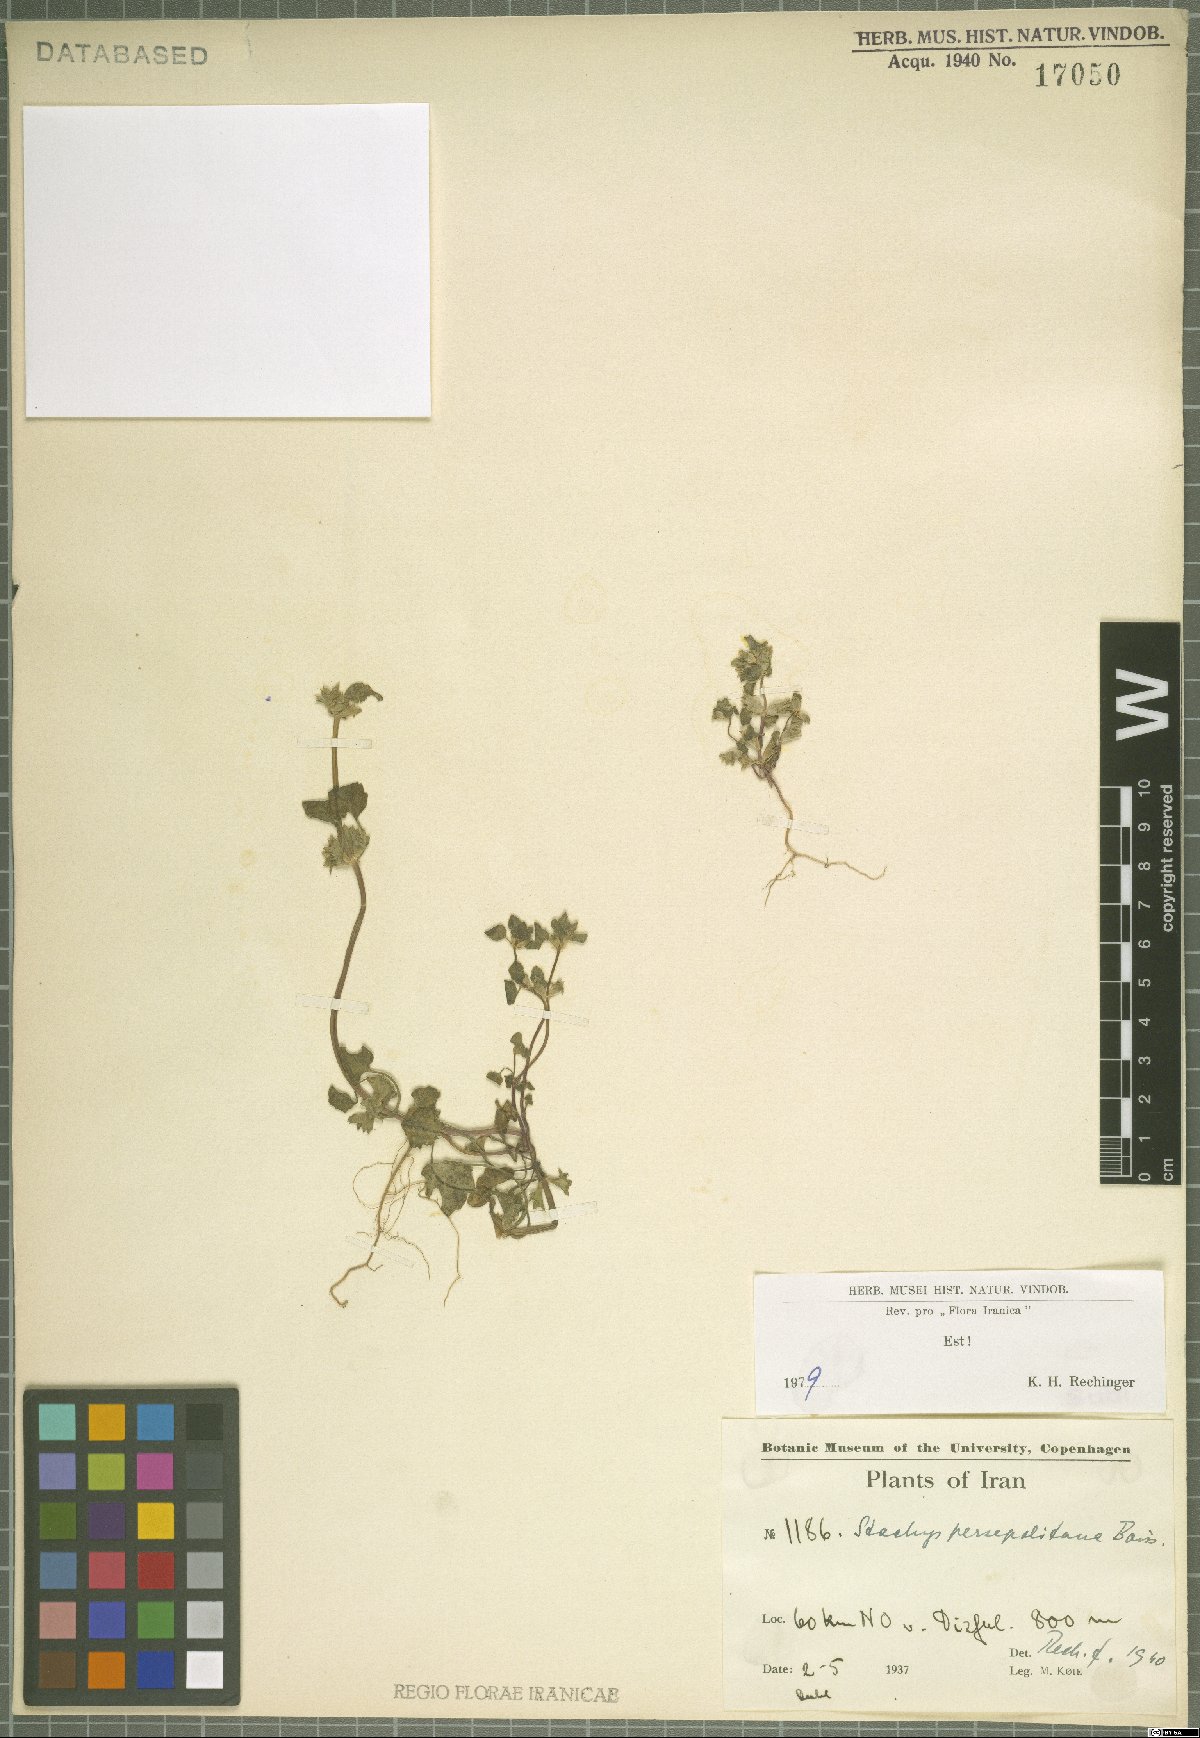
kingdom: Plantae
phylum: Tracheophyta
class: Magnoliopsida
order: Lamiales
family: Lamiaceae
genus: Lamium
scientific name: Lamium persepolitanum
